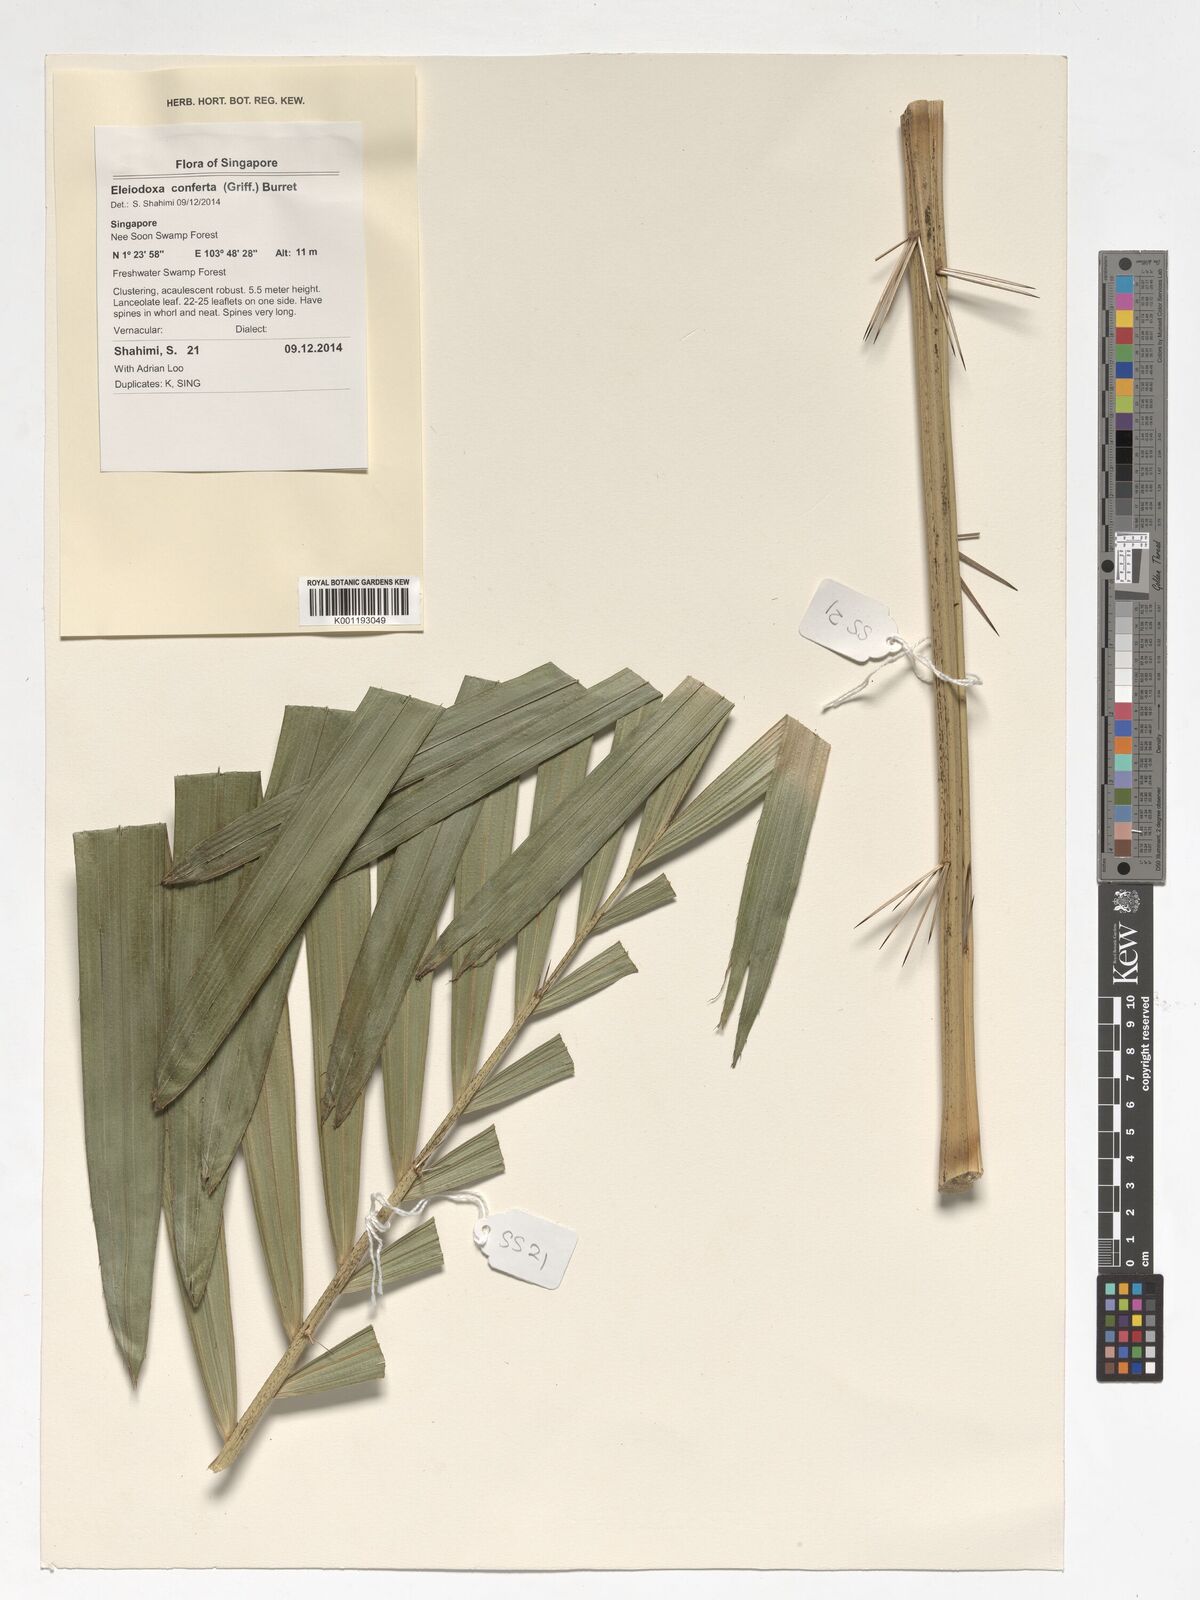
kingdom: Plantae
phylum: Tracheophyta
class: Liliopsida
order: Arecales
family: Arecaceae
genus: Eleiodoxa
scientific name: Eleiodoxa conferta
